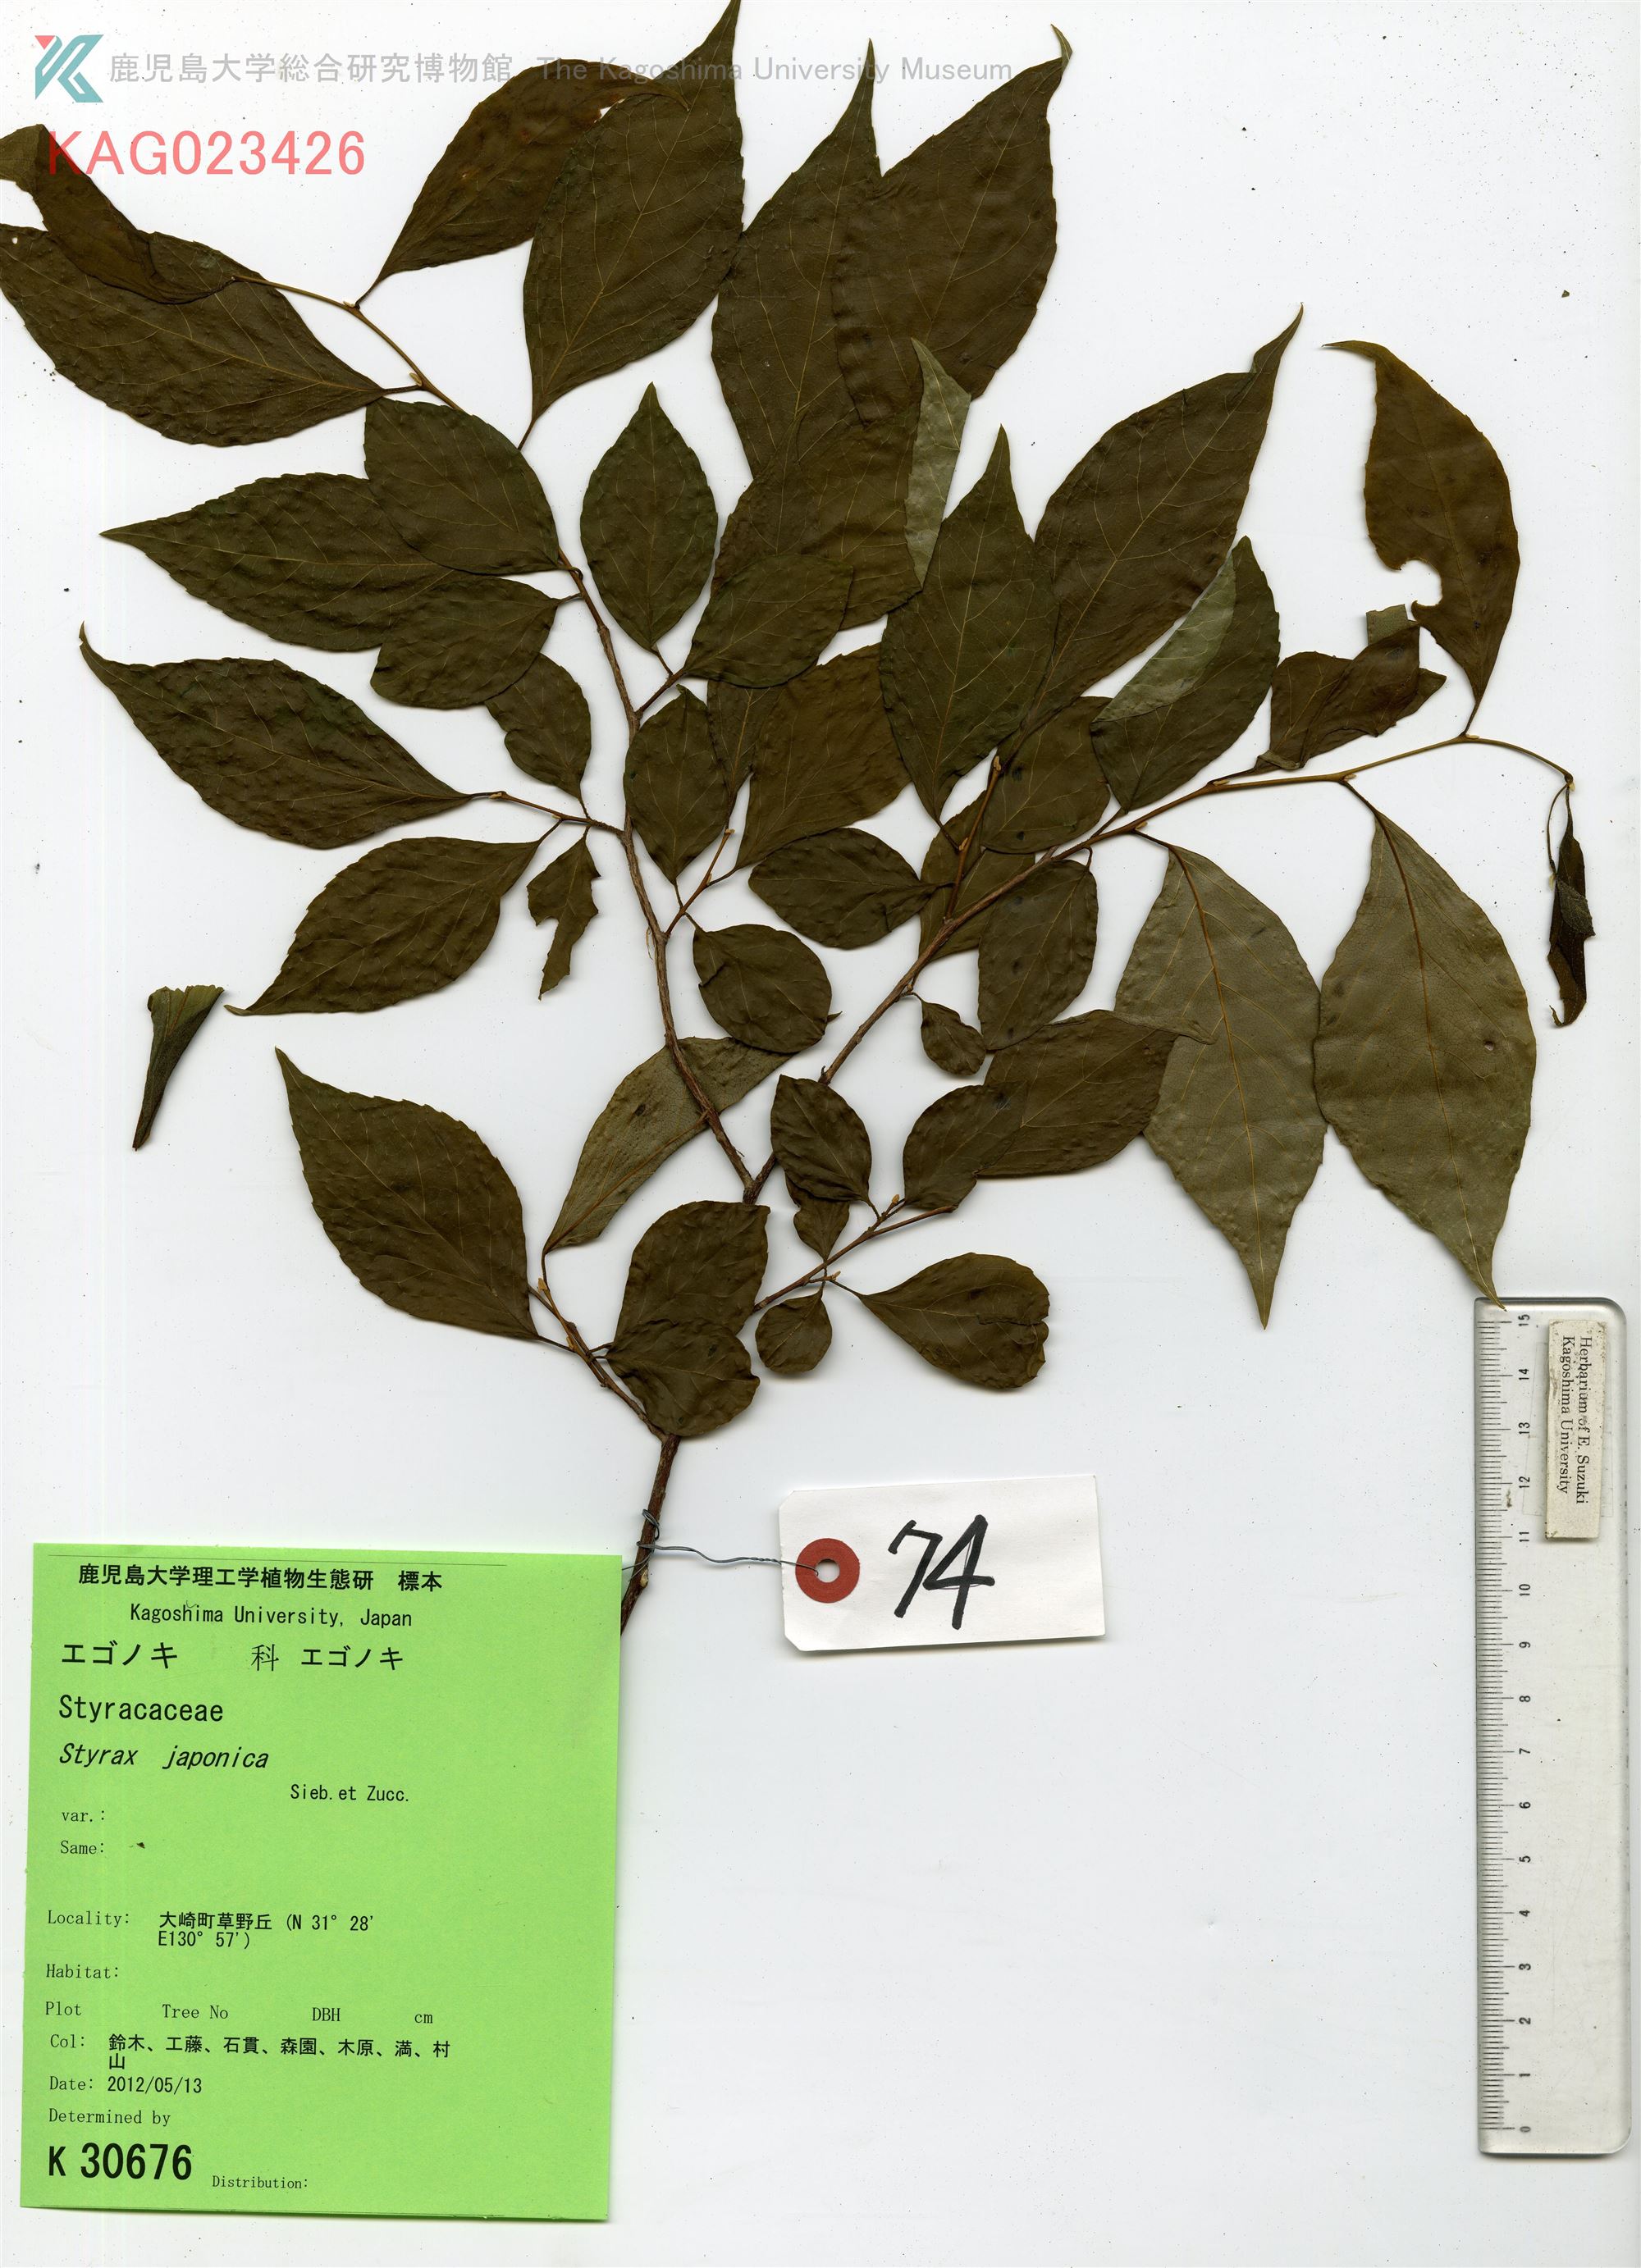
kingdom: Plantae
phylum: Tracheophyta
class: Magnoliopsida
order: Ericales
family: Styracaceae
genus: Styrax
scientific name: Styrax japonicus
